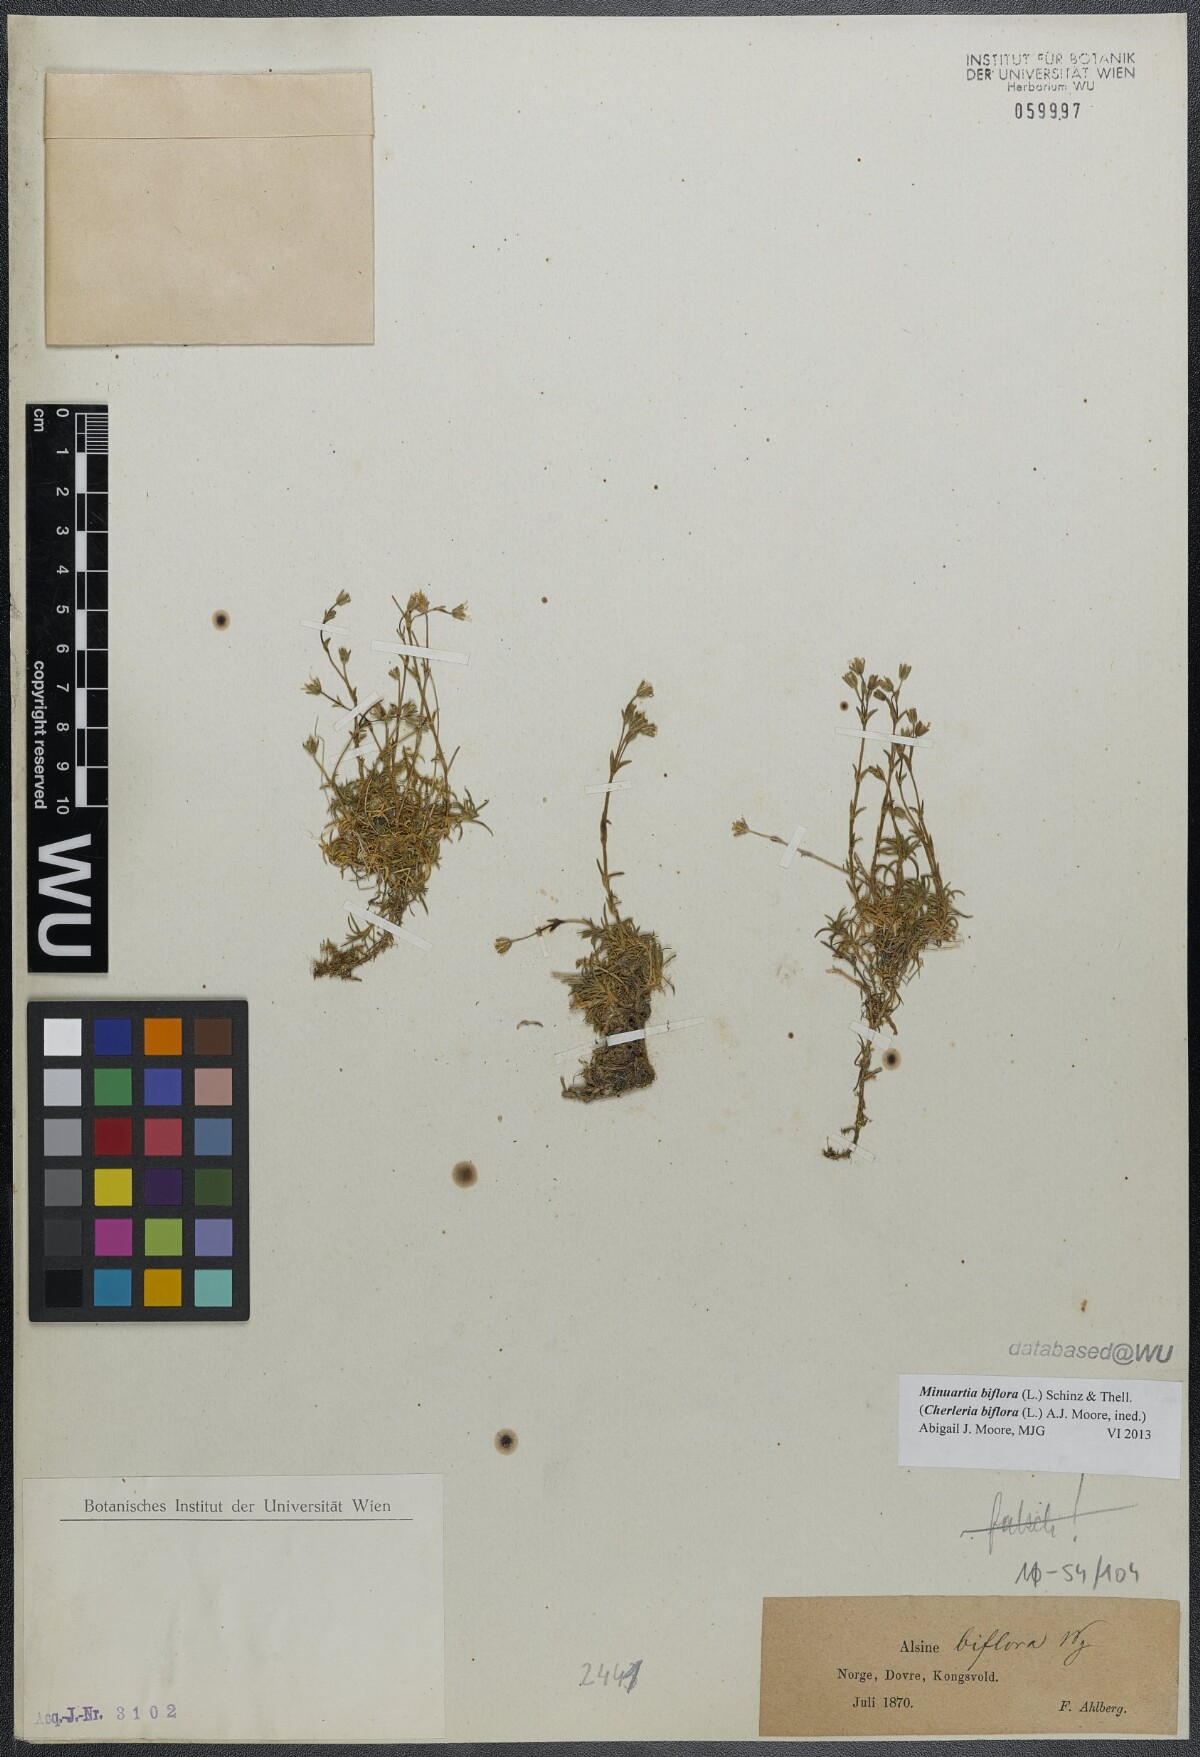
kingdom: Plantae
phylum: Tracheophyta
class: Magnoliopsida
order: Caryophyllales
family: Caryophyllaceae
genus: Cherleria
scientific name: Cherleria biflora
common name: Mountain sandwort
